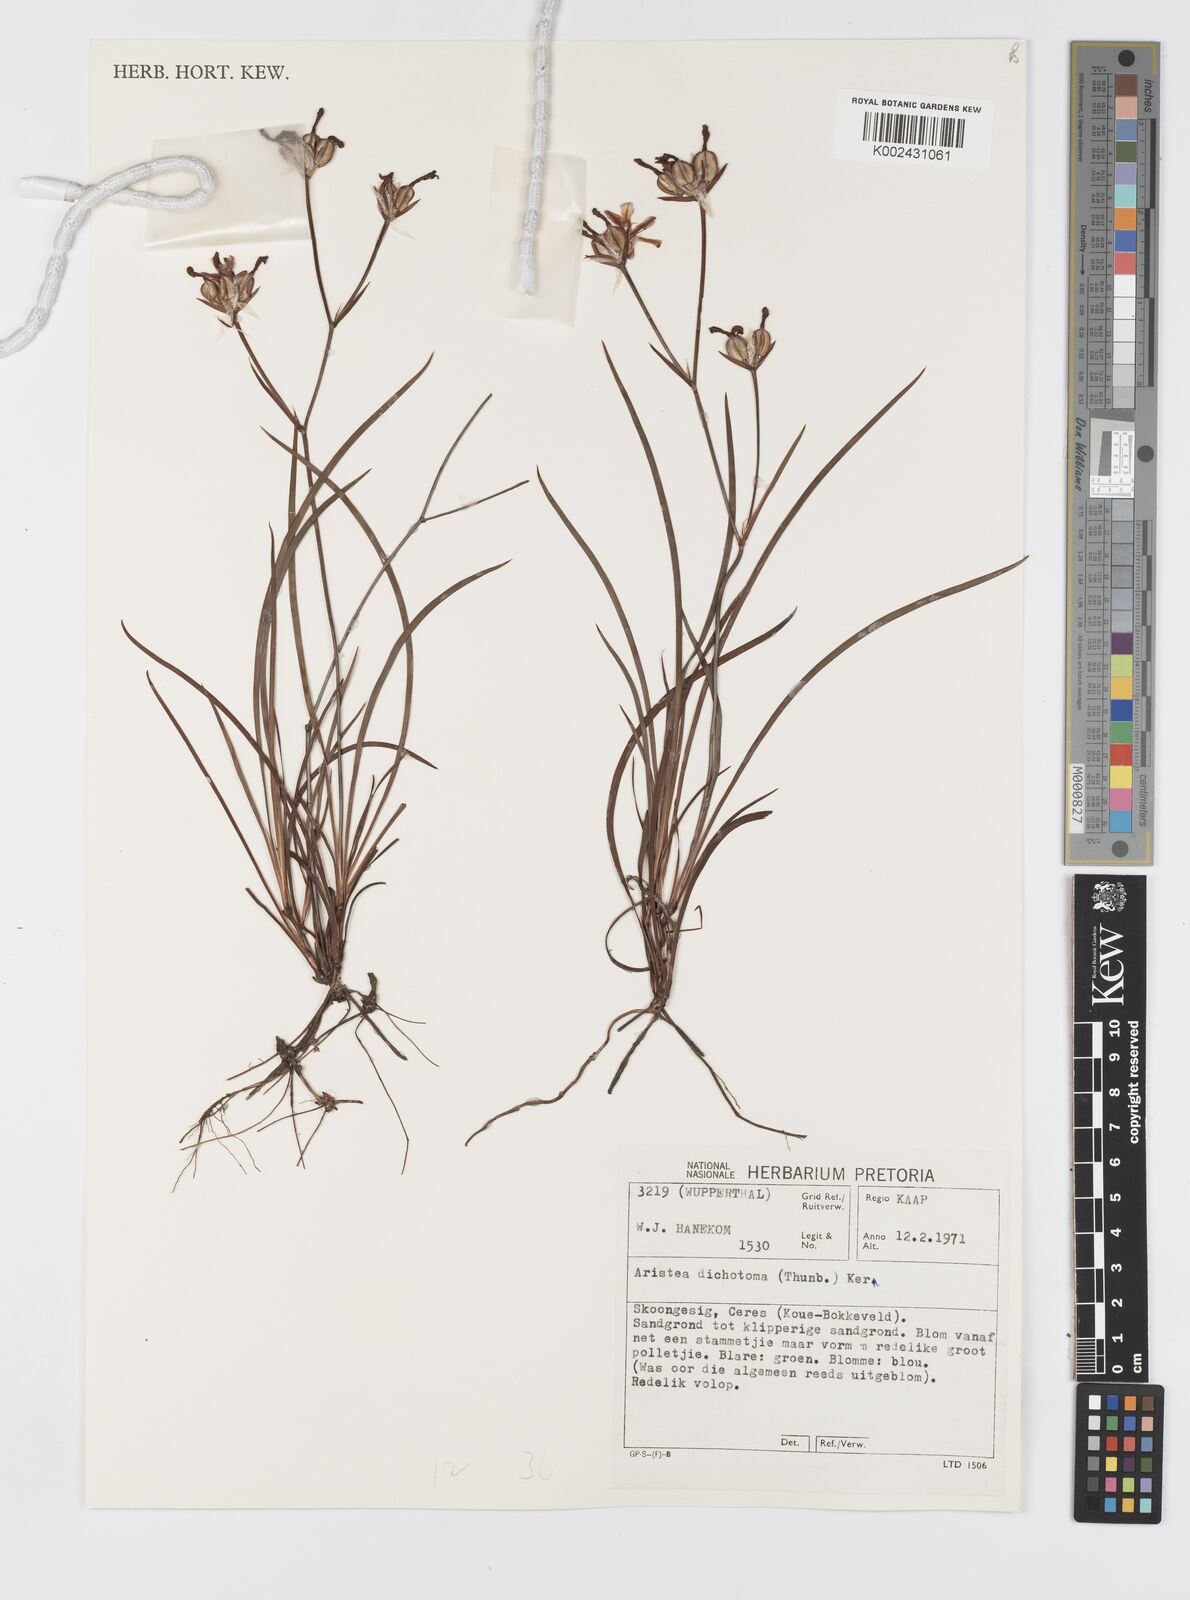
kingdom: Plantae
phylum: Tracheophyta
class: Liliopsida
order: Asparagales
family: Iridaceae
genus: Aristea
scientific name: Aristea dichotoma
